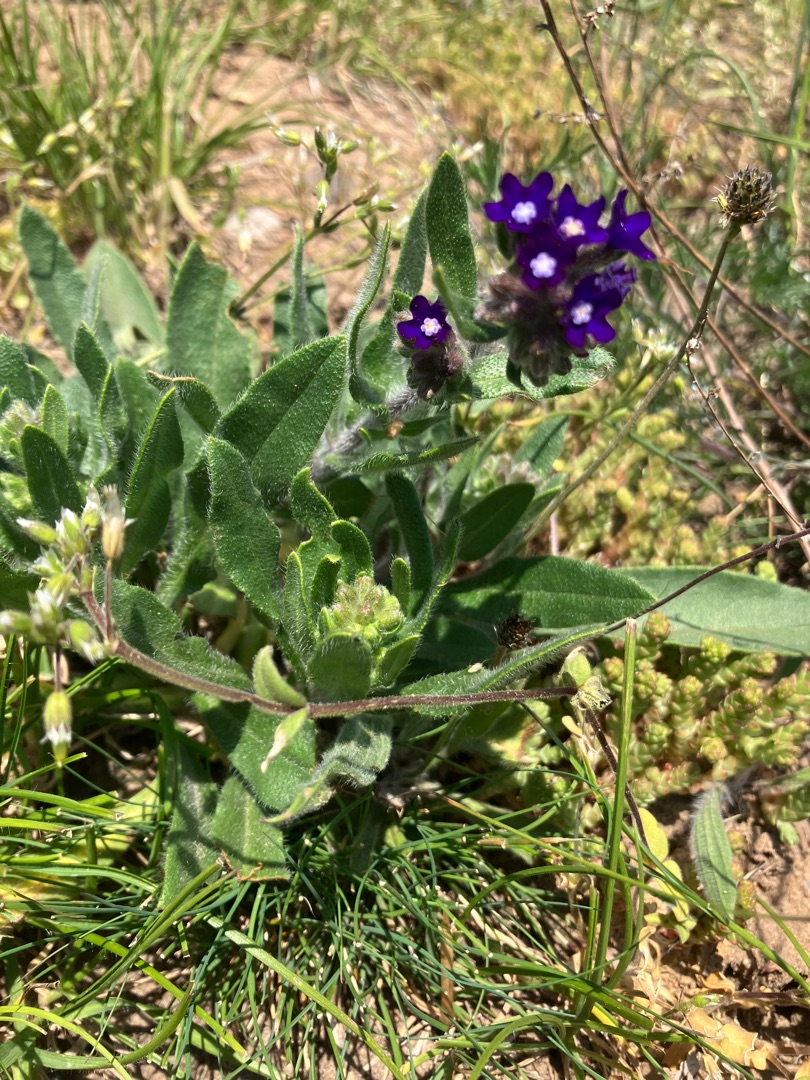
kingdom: Plantae
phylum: Tracheophyta
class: Magnoliopsida
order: Boraginales
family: Boraginaceae
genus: Anchusa
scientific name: Anchusa officinalis
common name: Læge-oksetunge
